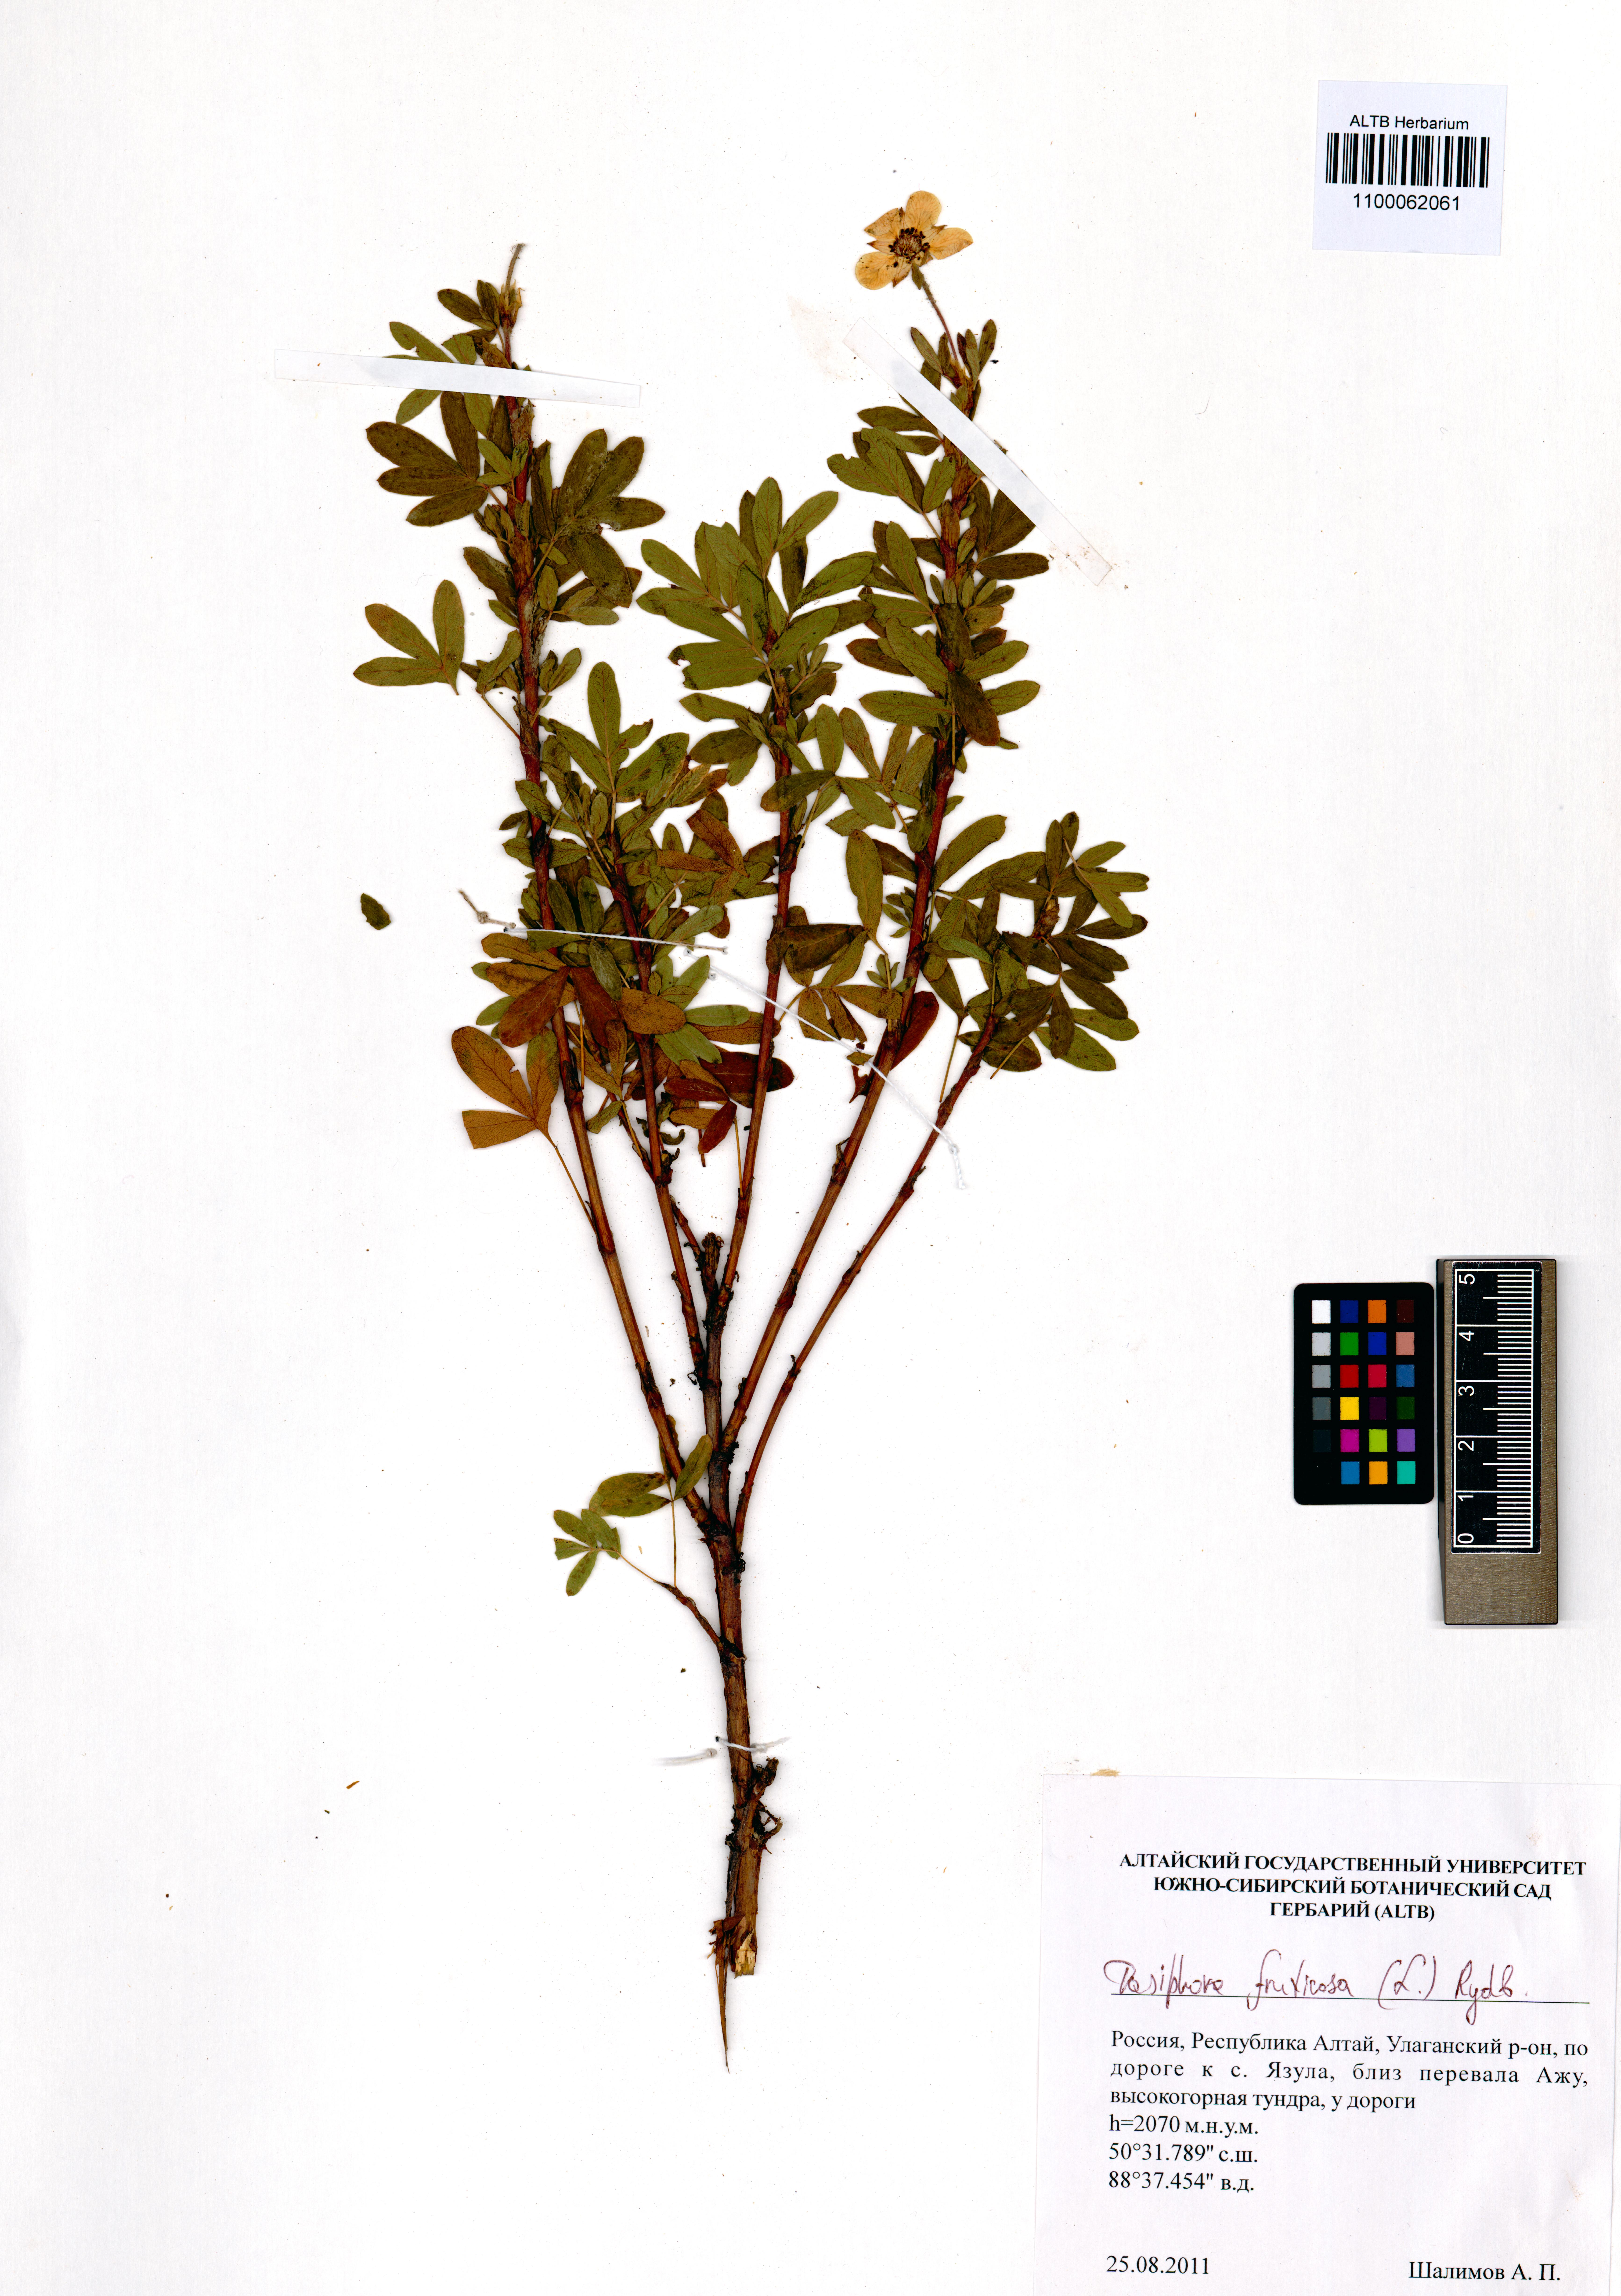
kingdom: Plantae
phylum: Tracheophyta
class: Magnoliopsida
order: Rosales
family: Rosaceae
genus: Dasiphora
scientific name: Dasiphora fruticosa
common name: Shrubby cinquefoil
